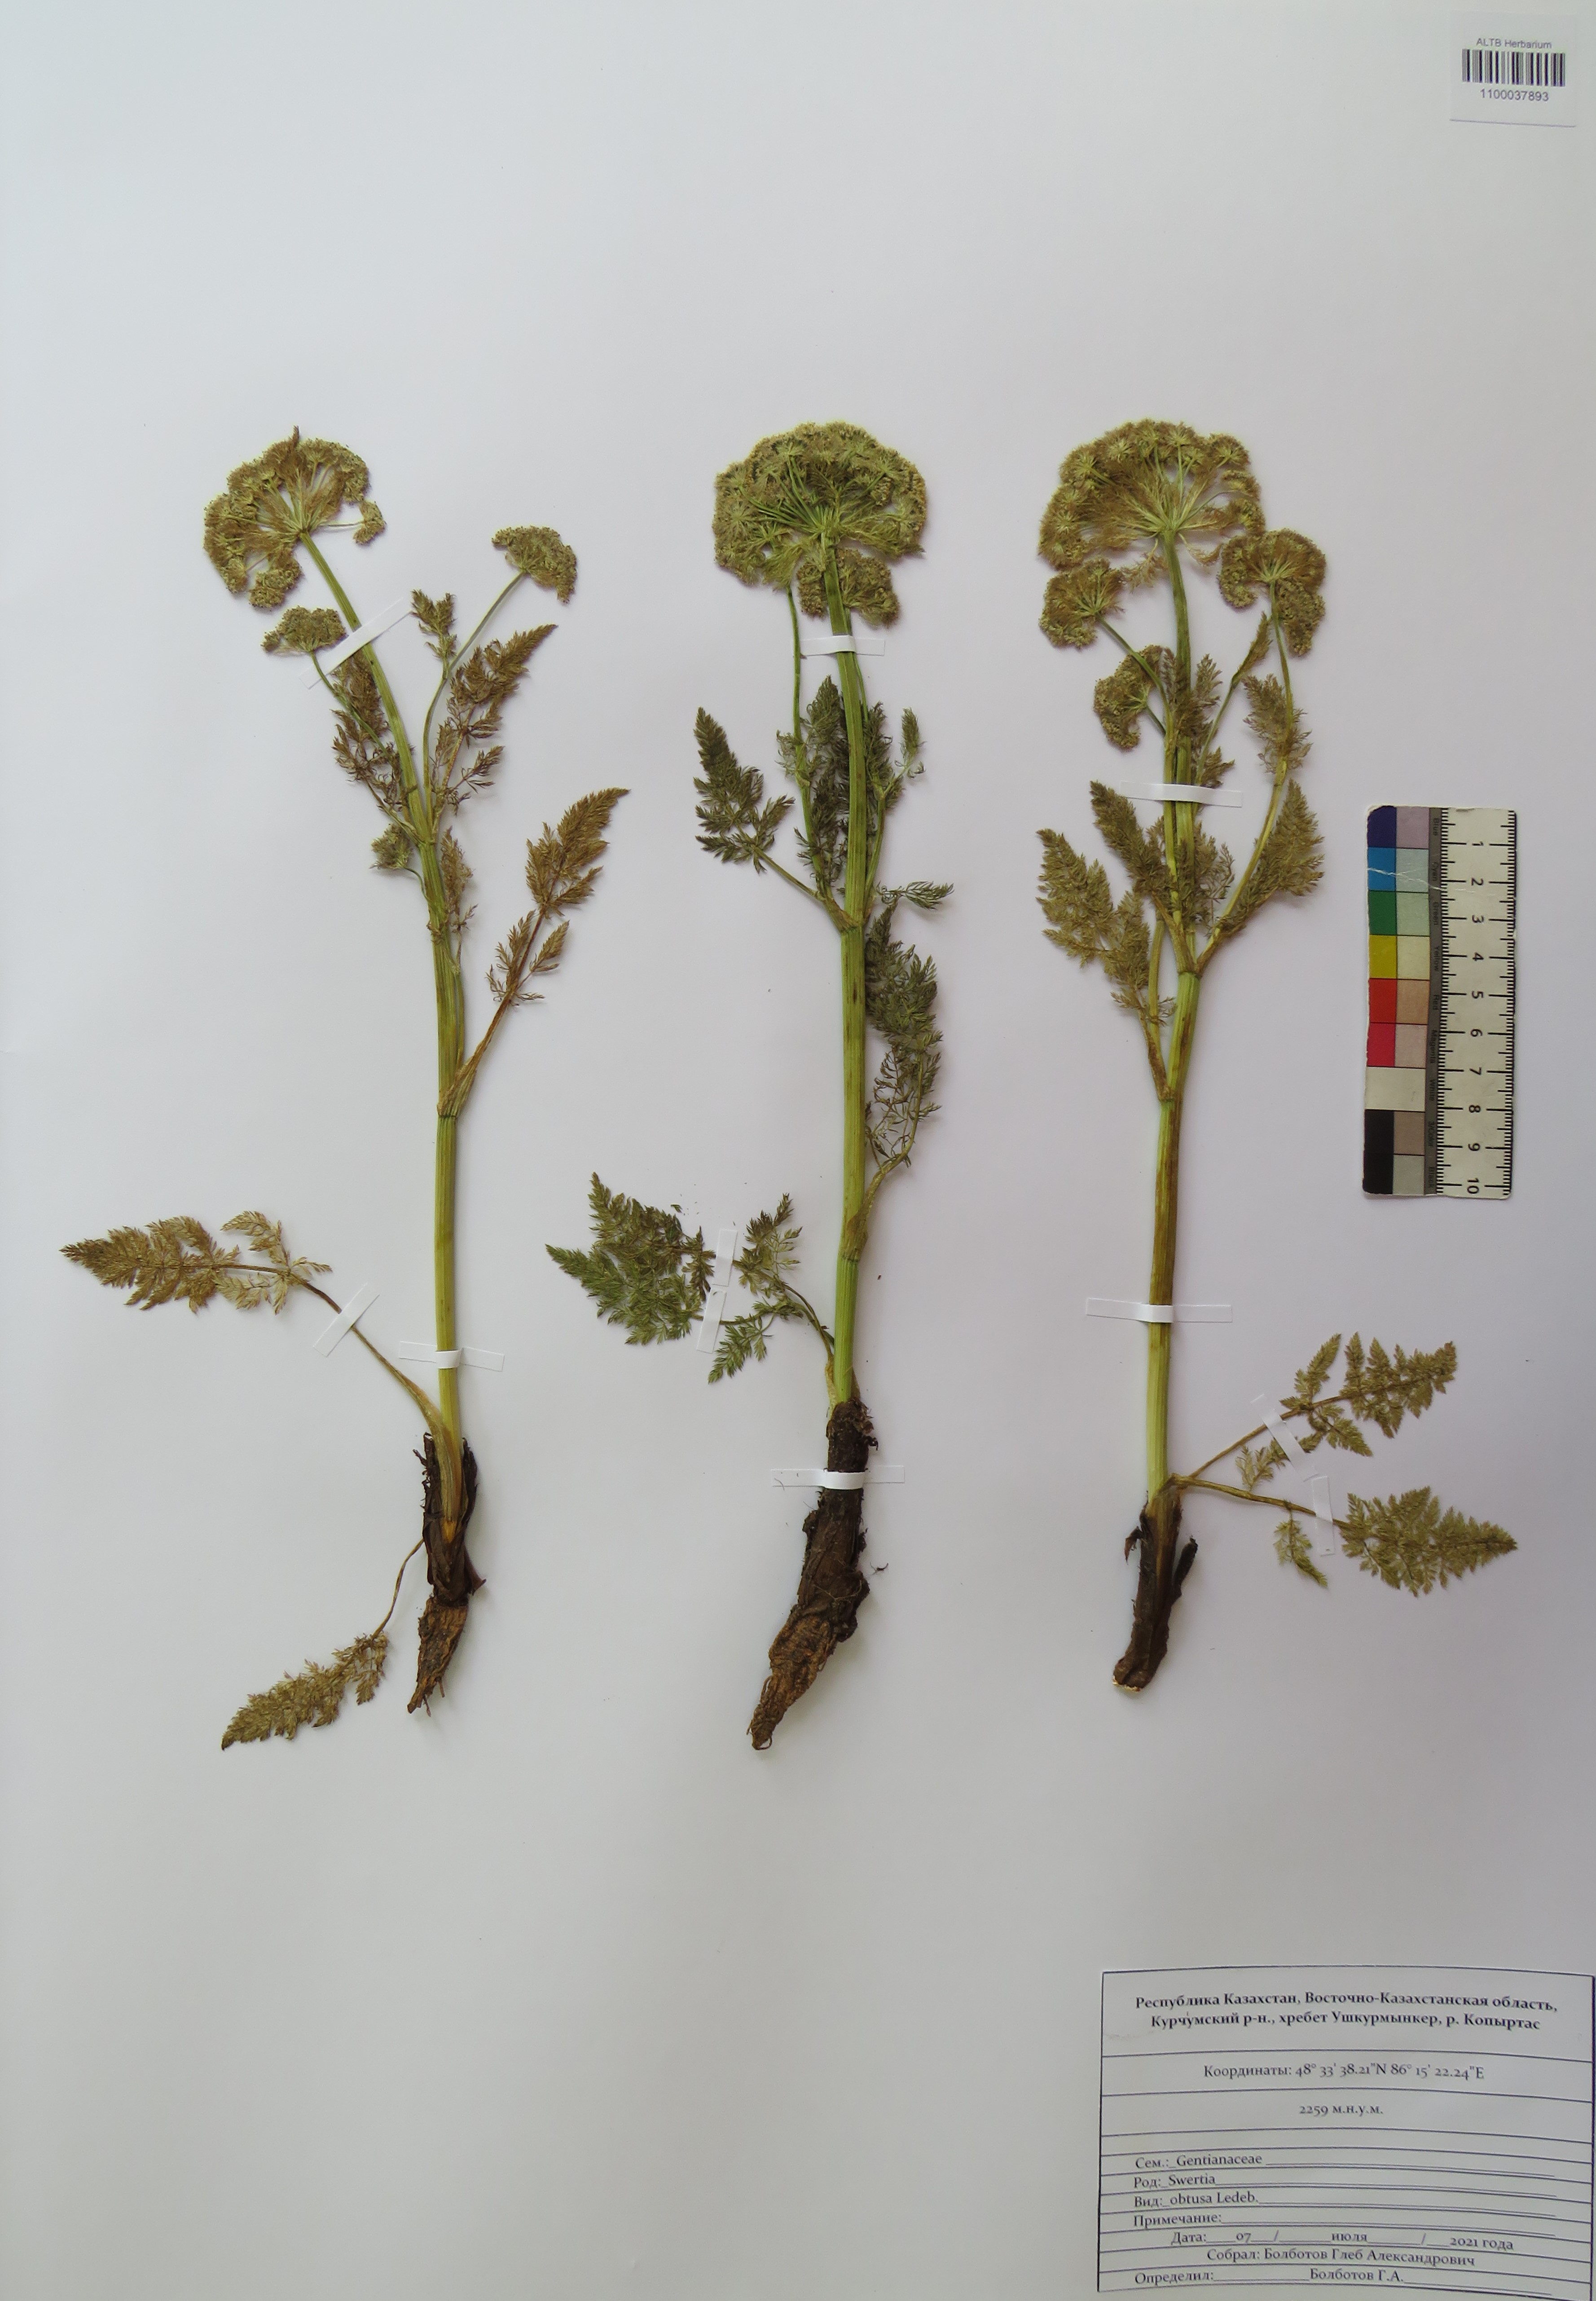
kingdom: Plantae
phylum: Tracheophyta
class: Magnoliopsida
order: Gentianales
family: Gentianaceae
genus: Swertia
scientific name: Swertia obtusa
